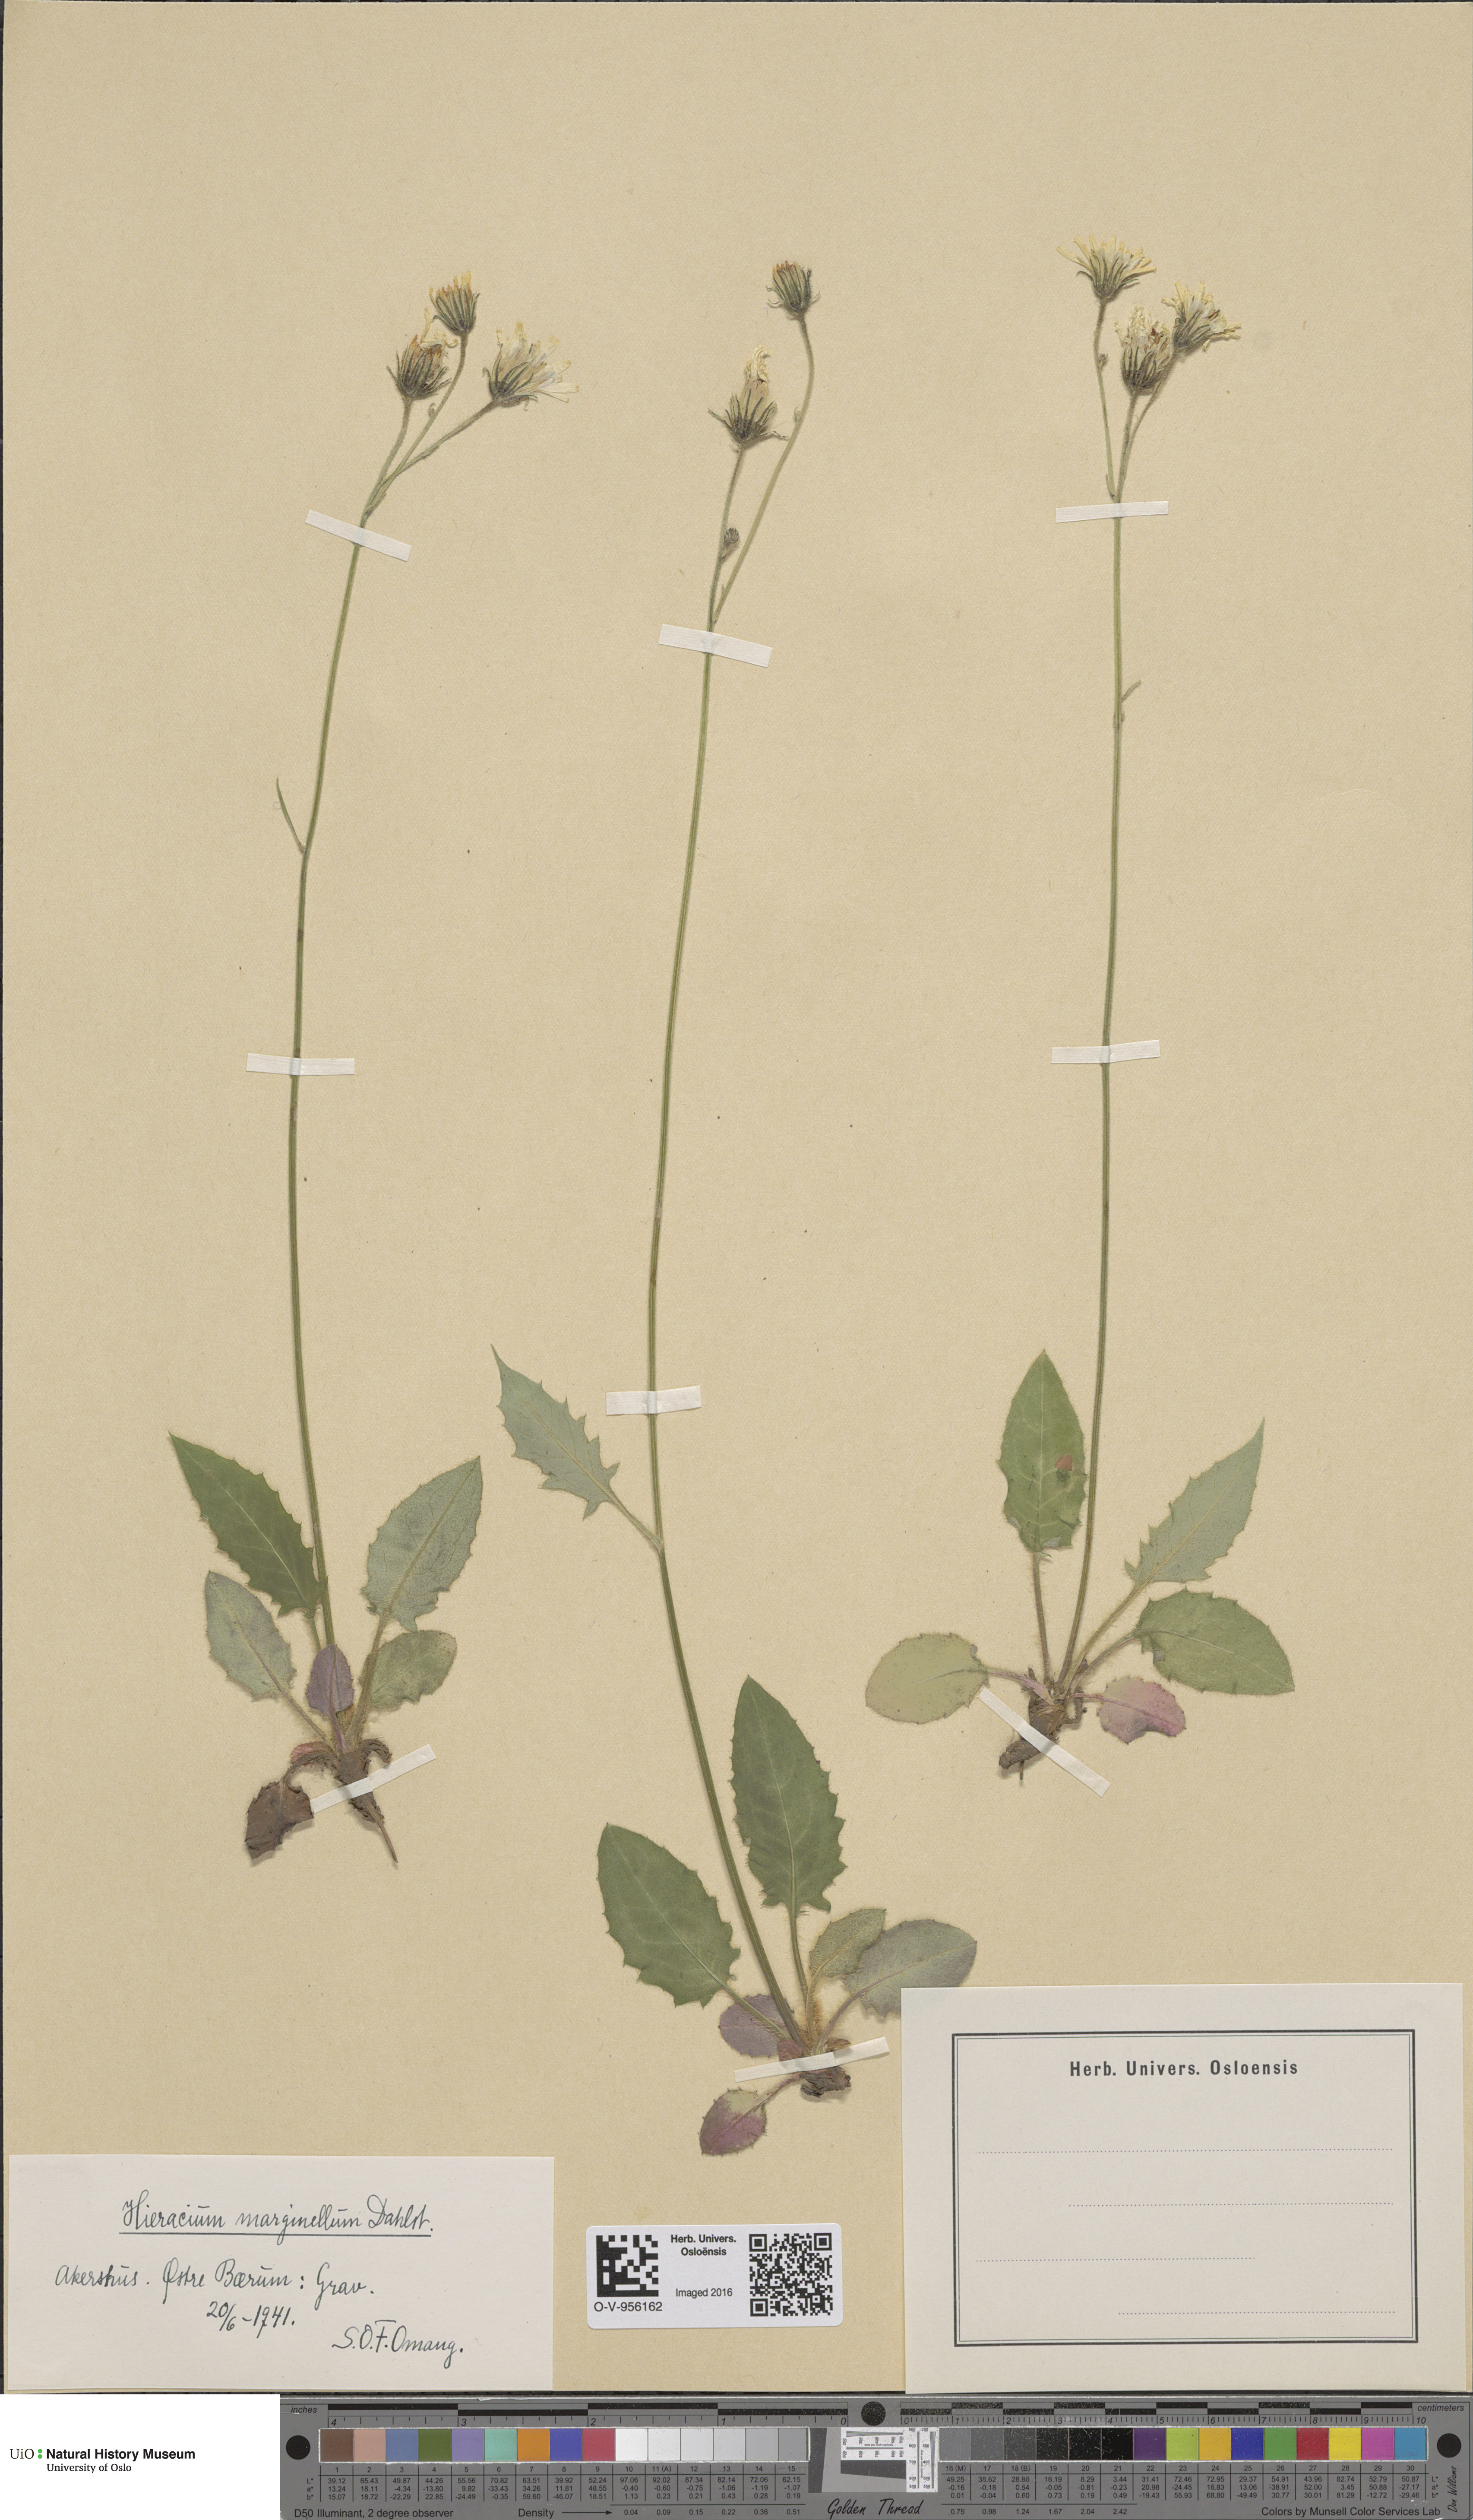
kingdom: Plantae
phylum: Tracheophyta
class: Magnoliopsida
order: Asterales
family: Asteraceae
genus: Hieracium
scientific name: Hieracium marginellum
